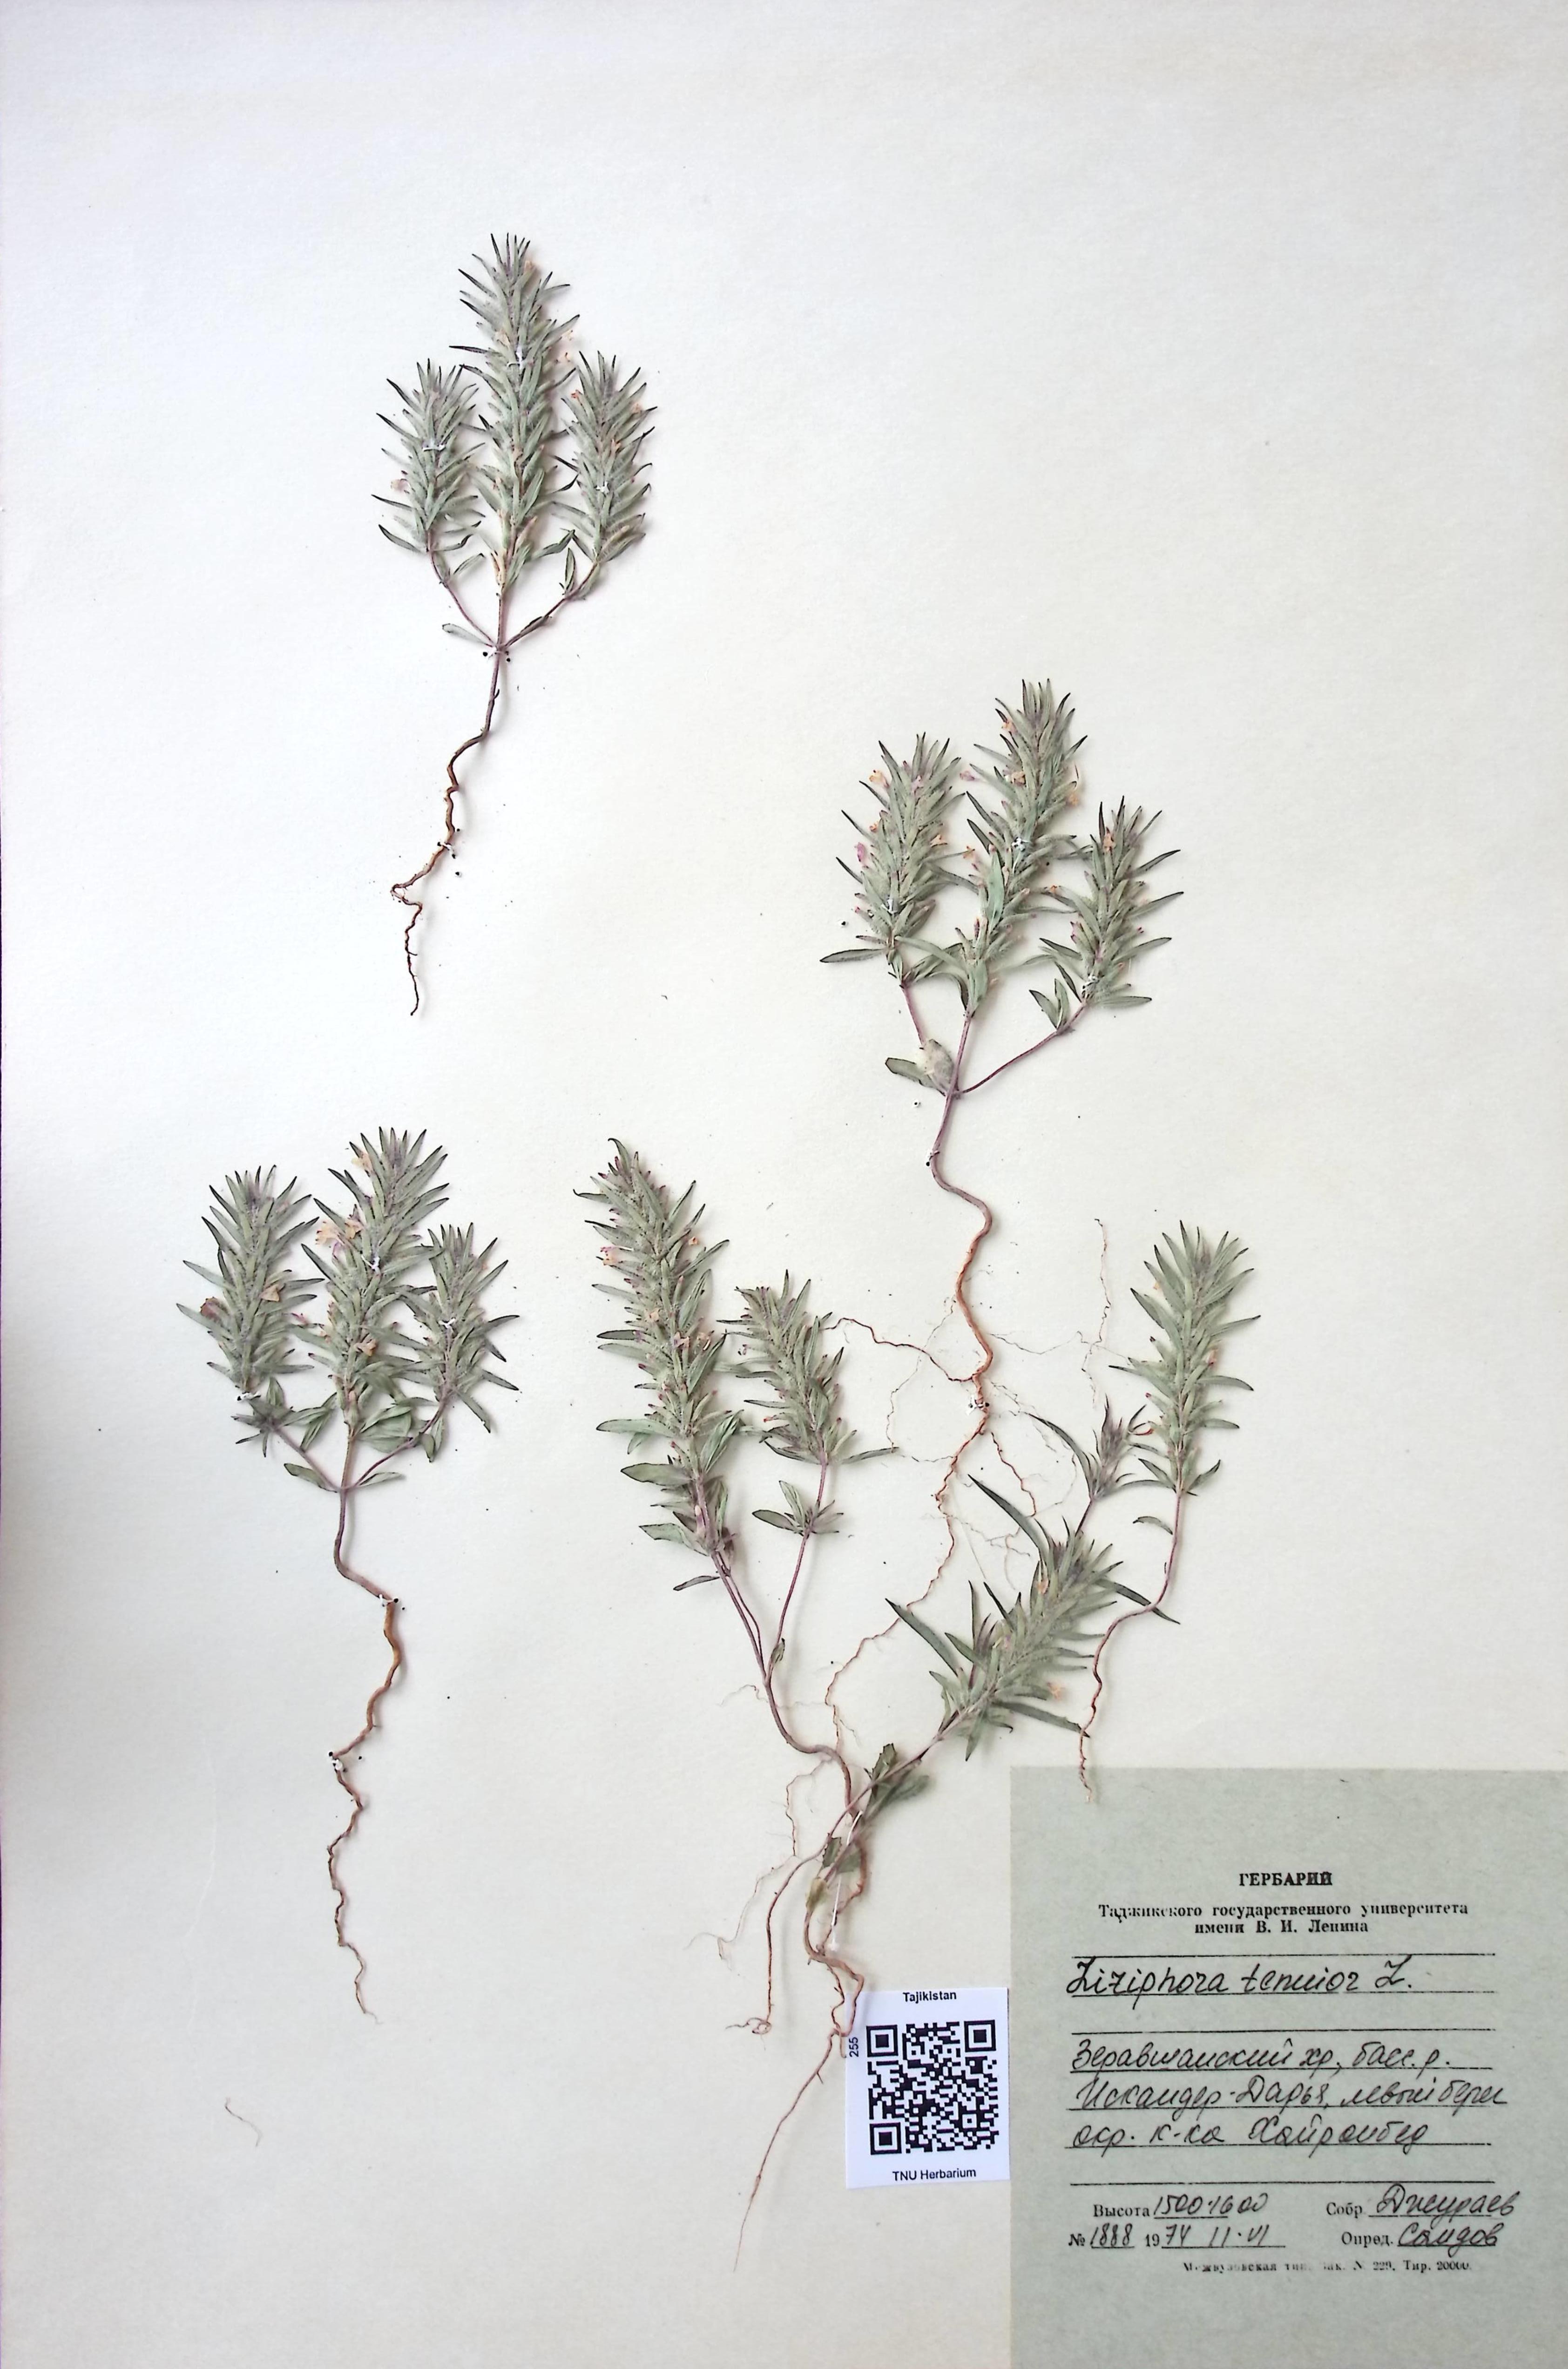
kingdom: Plantae
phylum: Tracheophyta
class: Magnoliopsida
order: Lamiales
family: Lamiaceae
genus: Ziziphora
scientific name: Ziziphora tenuior
